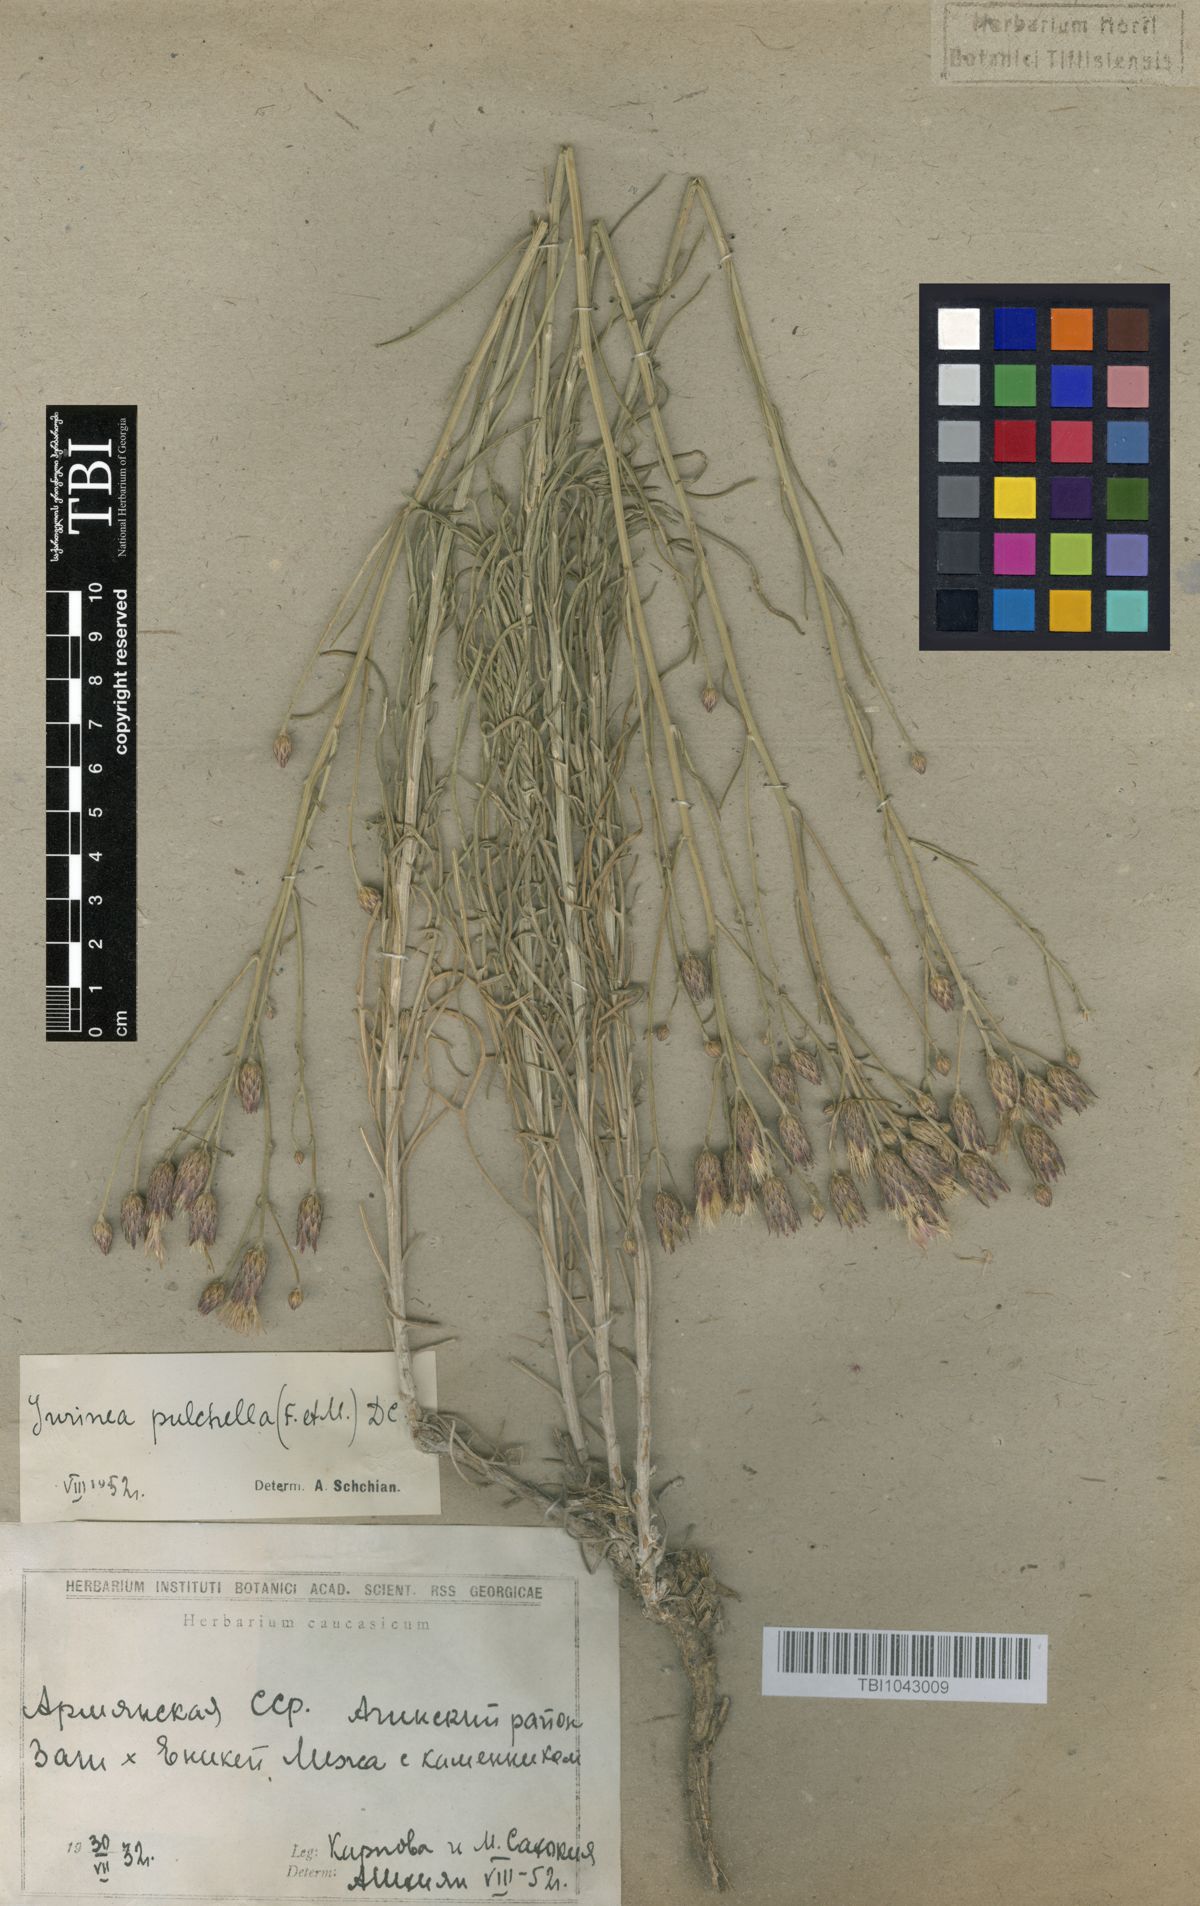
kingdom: Plantae
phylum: Tracheophyta
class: Magnoliopsida
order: Asterales
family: Asteraceae
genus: Jurinea
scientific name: Jurinea pulchella
